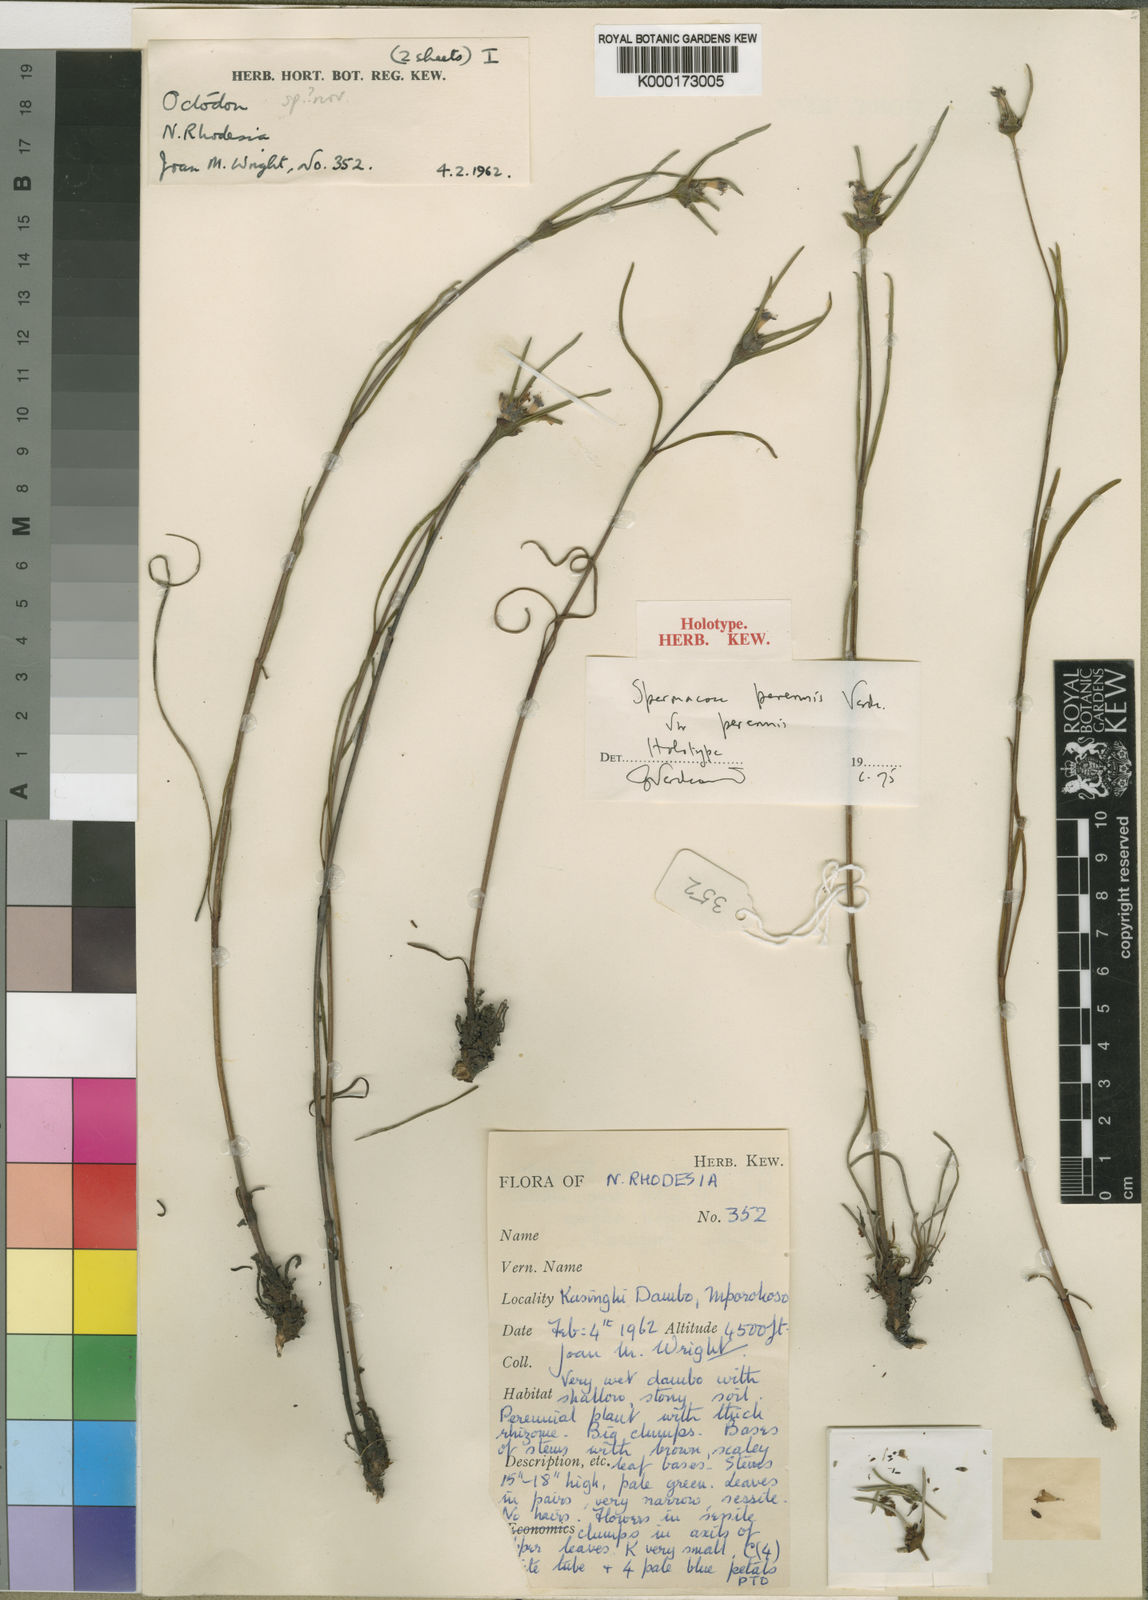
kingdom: Plantae
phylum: Tracheophyta
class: Magnoliopsida
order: Gentianales
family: Rubiaceae
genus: Spermacoce
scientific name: Spermacoce perennis
